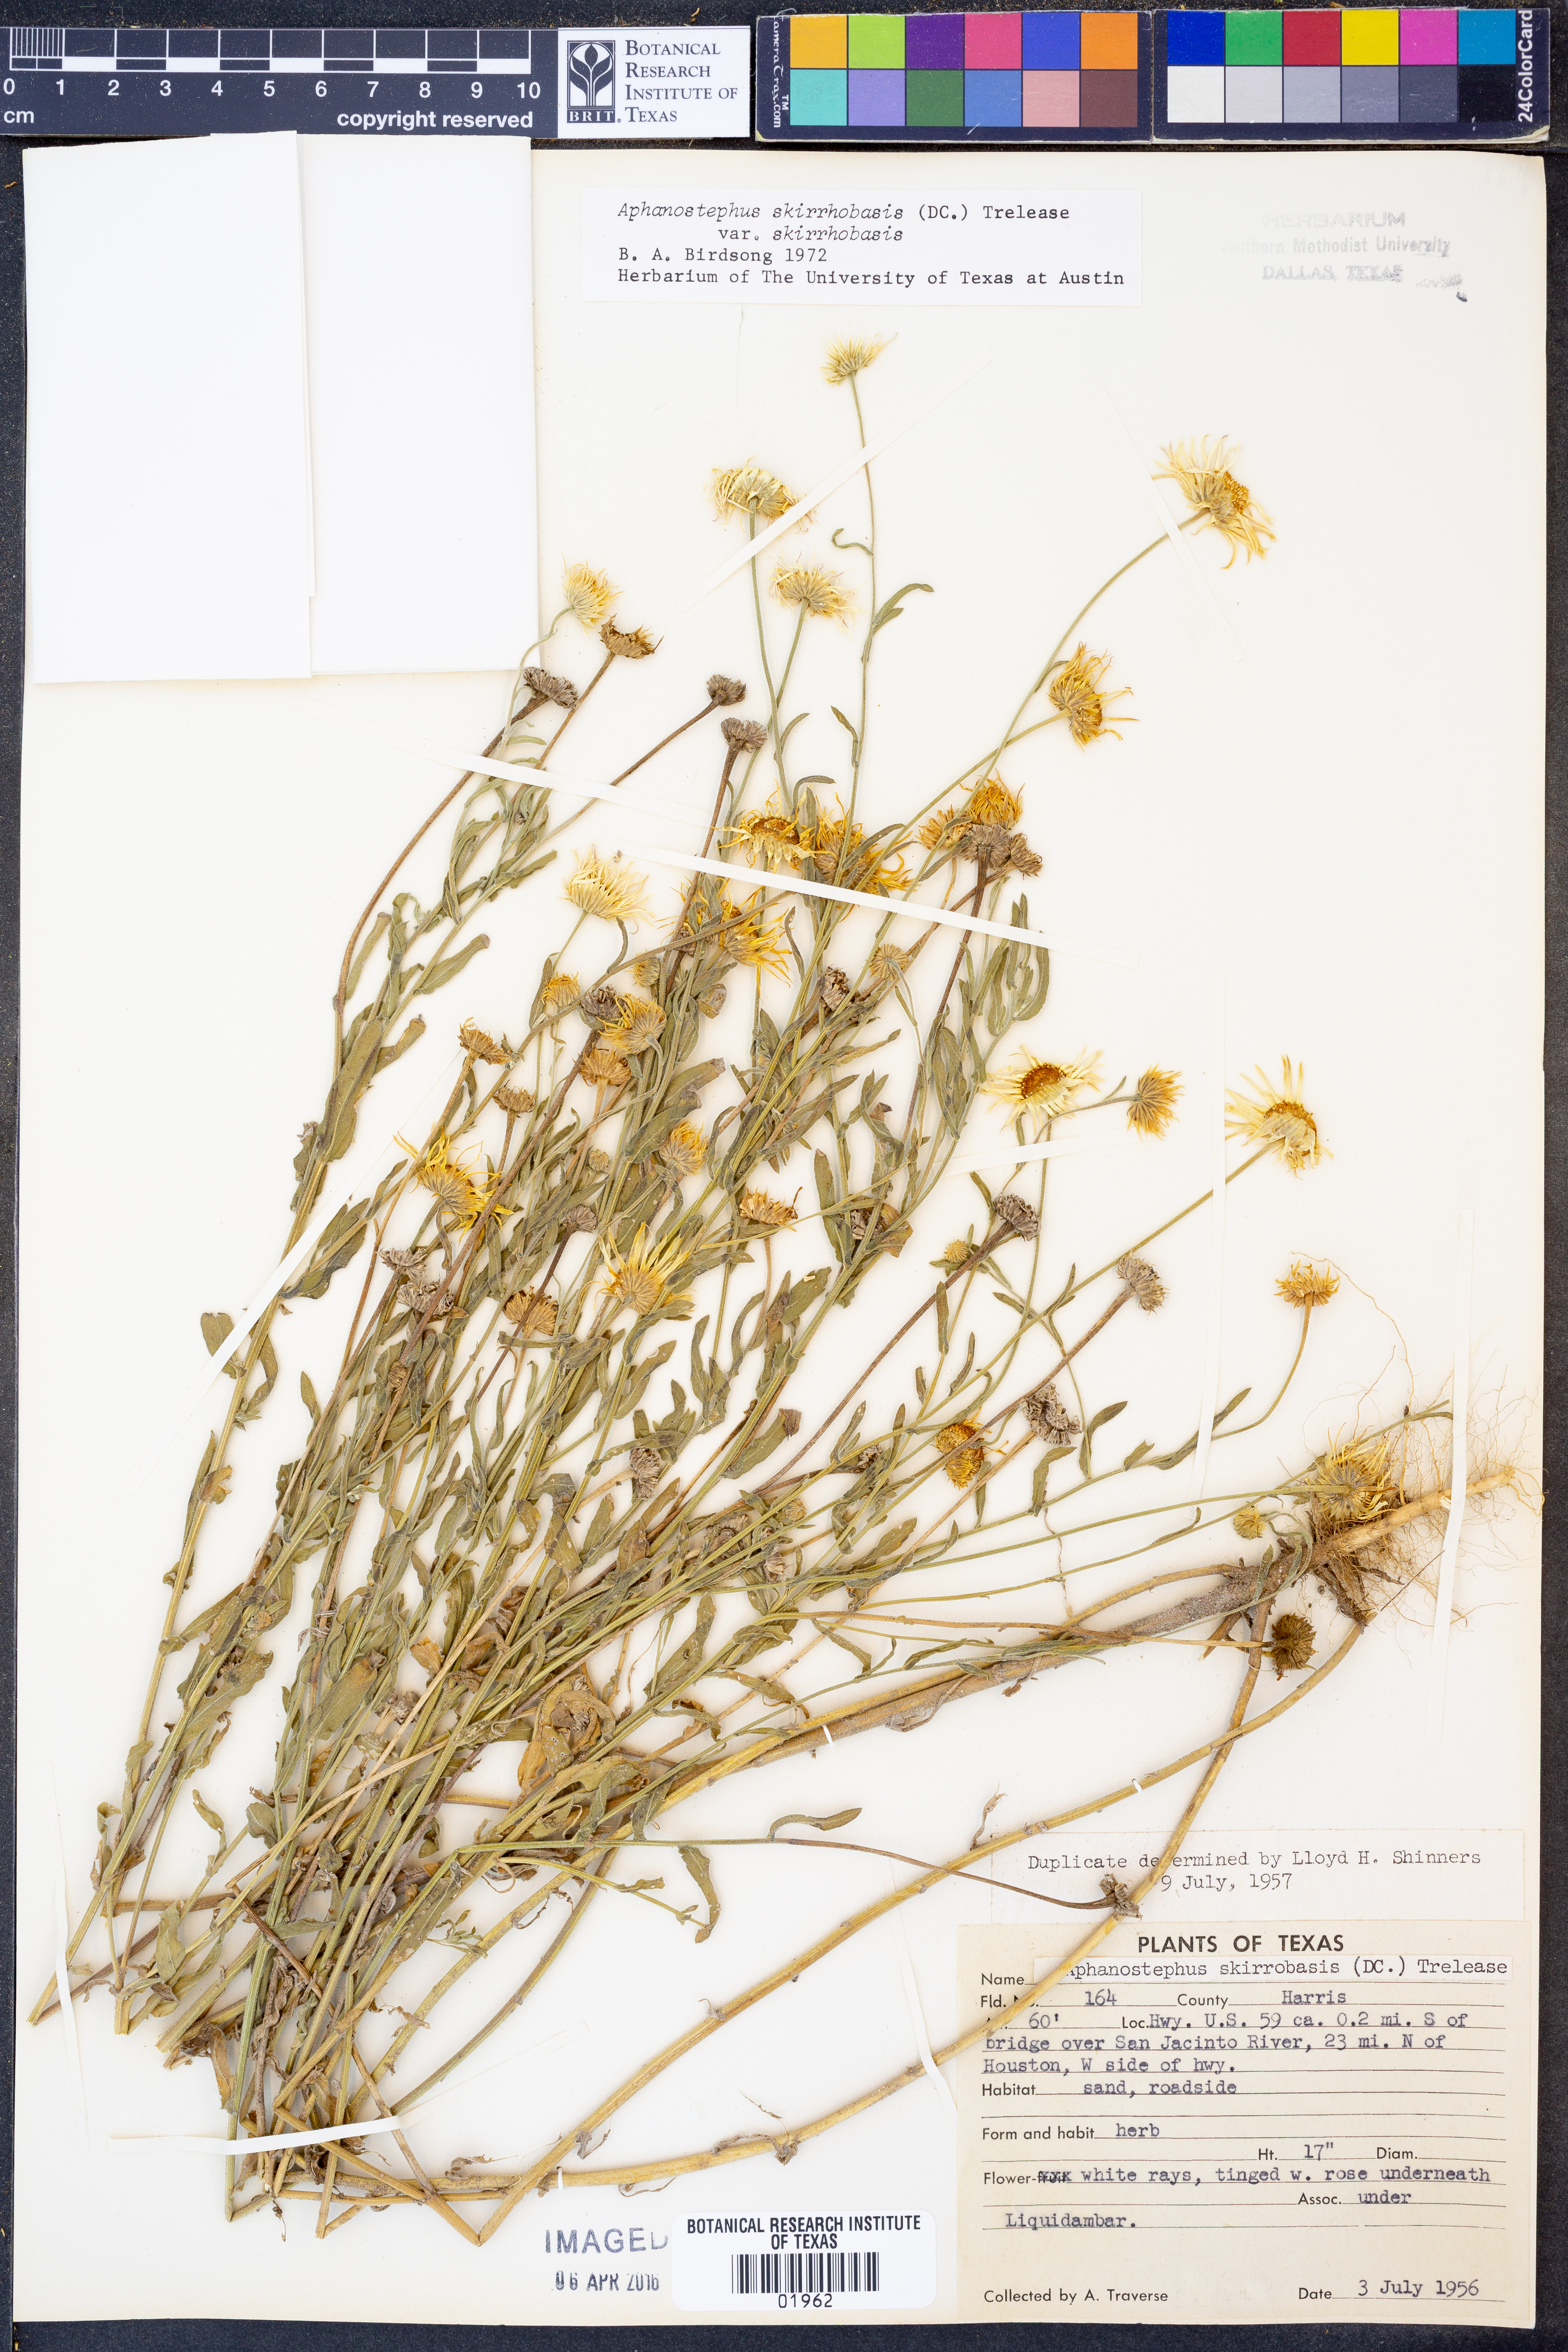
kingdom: Plantae
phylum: Tracheophyta
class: Magnoliopsida
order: Asterales
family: Asteraceae
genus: Aphanostephus
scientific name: Aphanostephus skirrhobasis
